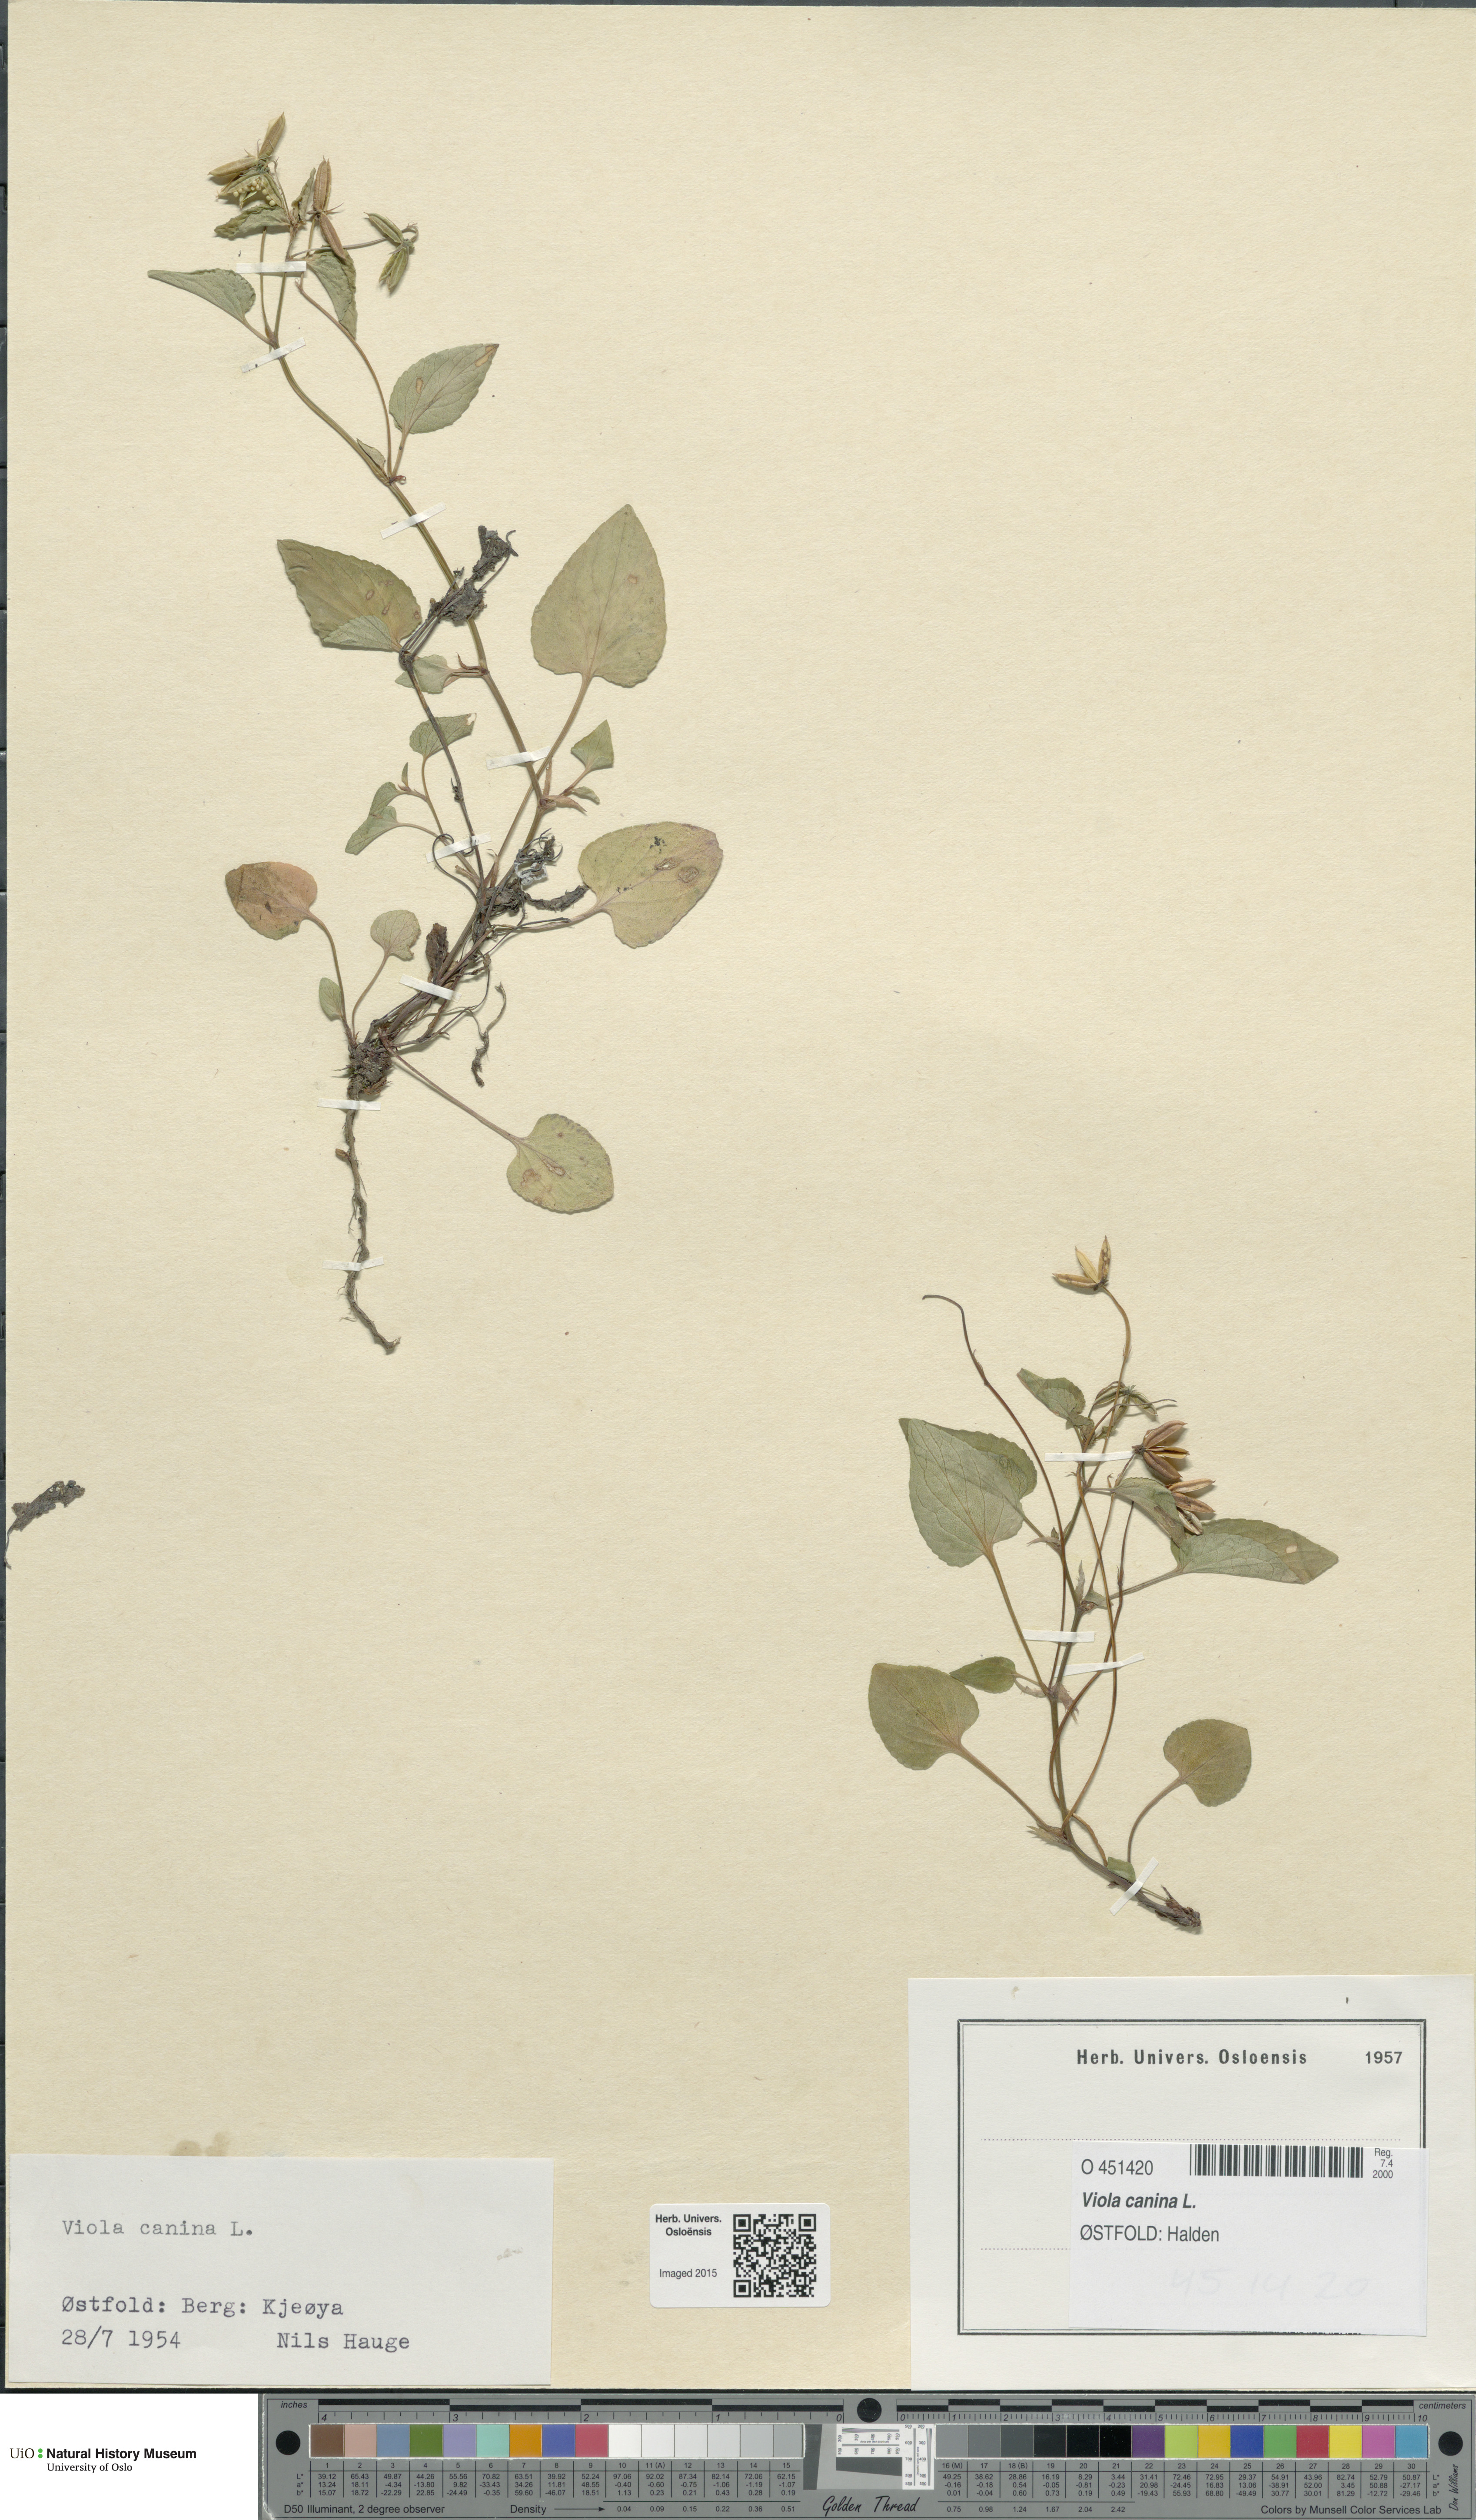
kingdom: Plantae
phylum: Tracheophyta
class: Magnoliopsida
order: Malpighiales
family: Violaceae
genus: Viola
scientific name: Viola canina
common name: Heath dog-violet
